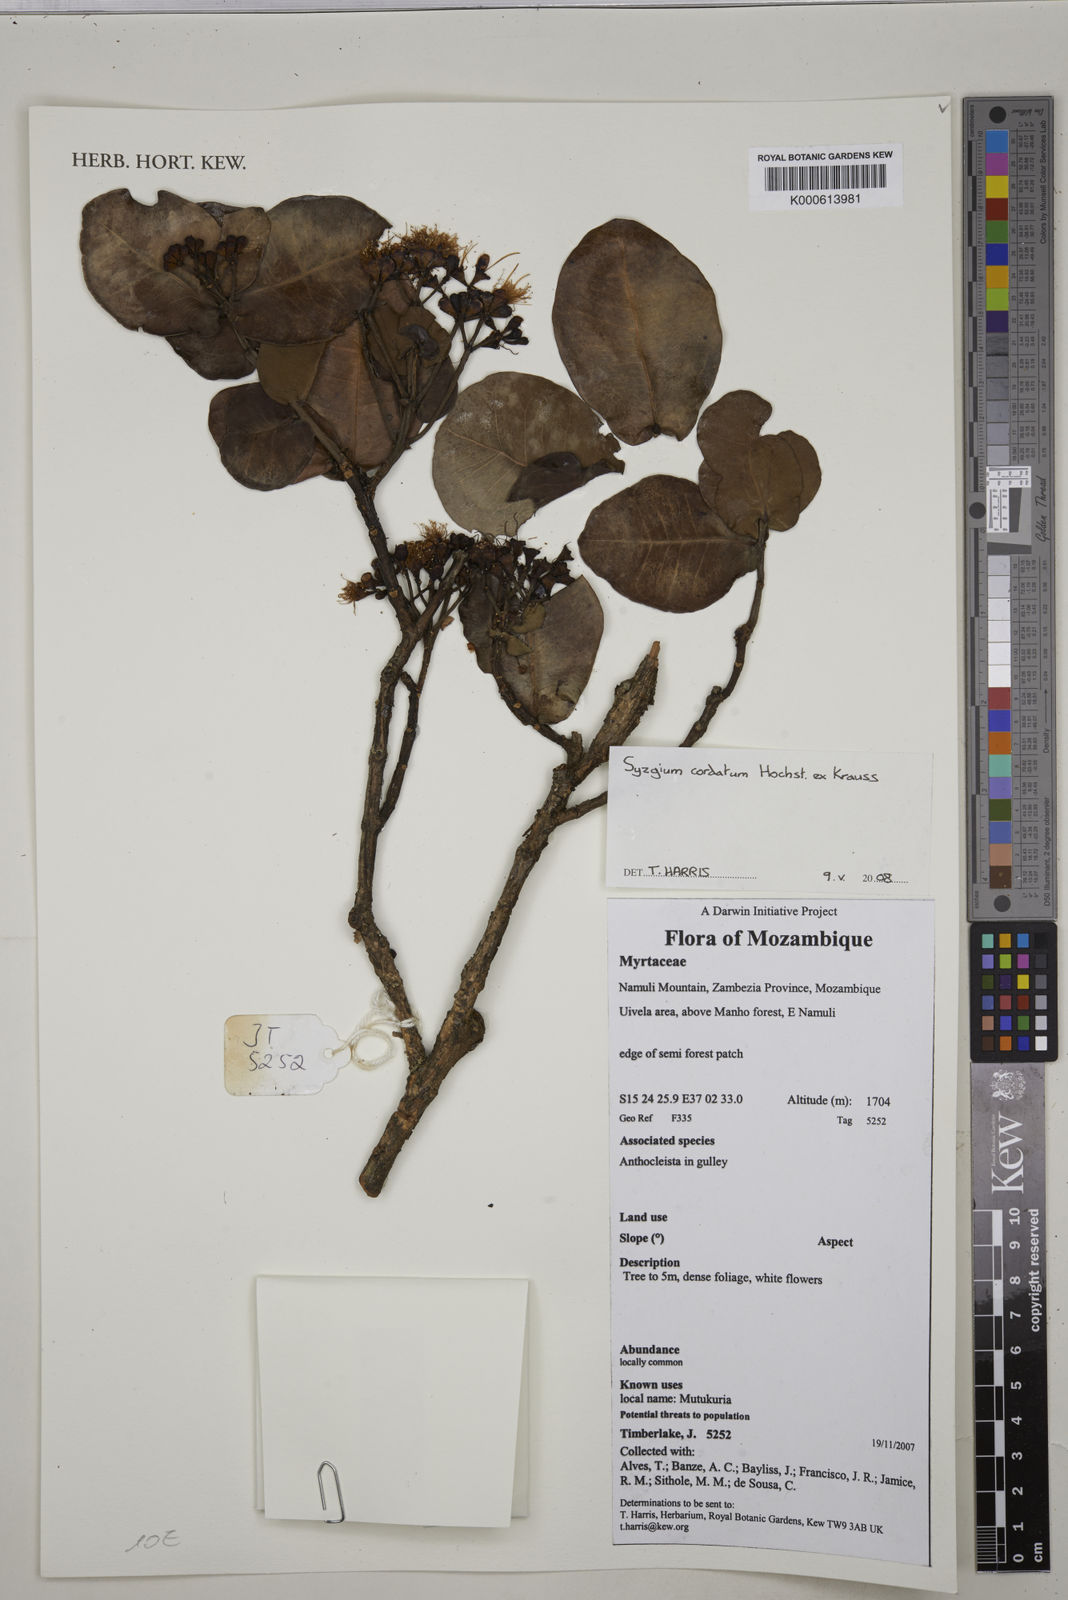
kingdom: Plantae
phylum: Tracheophyta
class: Magnoliopsida
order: Myrtales
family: Myrtaceae
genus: Syzygium
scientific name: Syzygium cordatum
